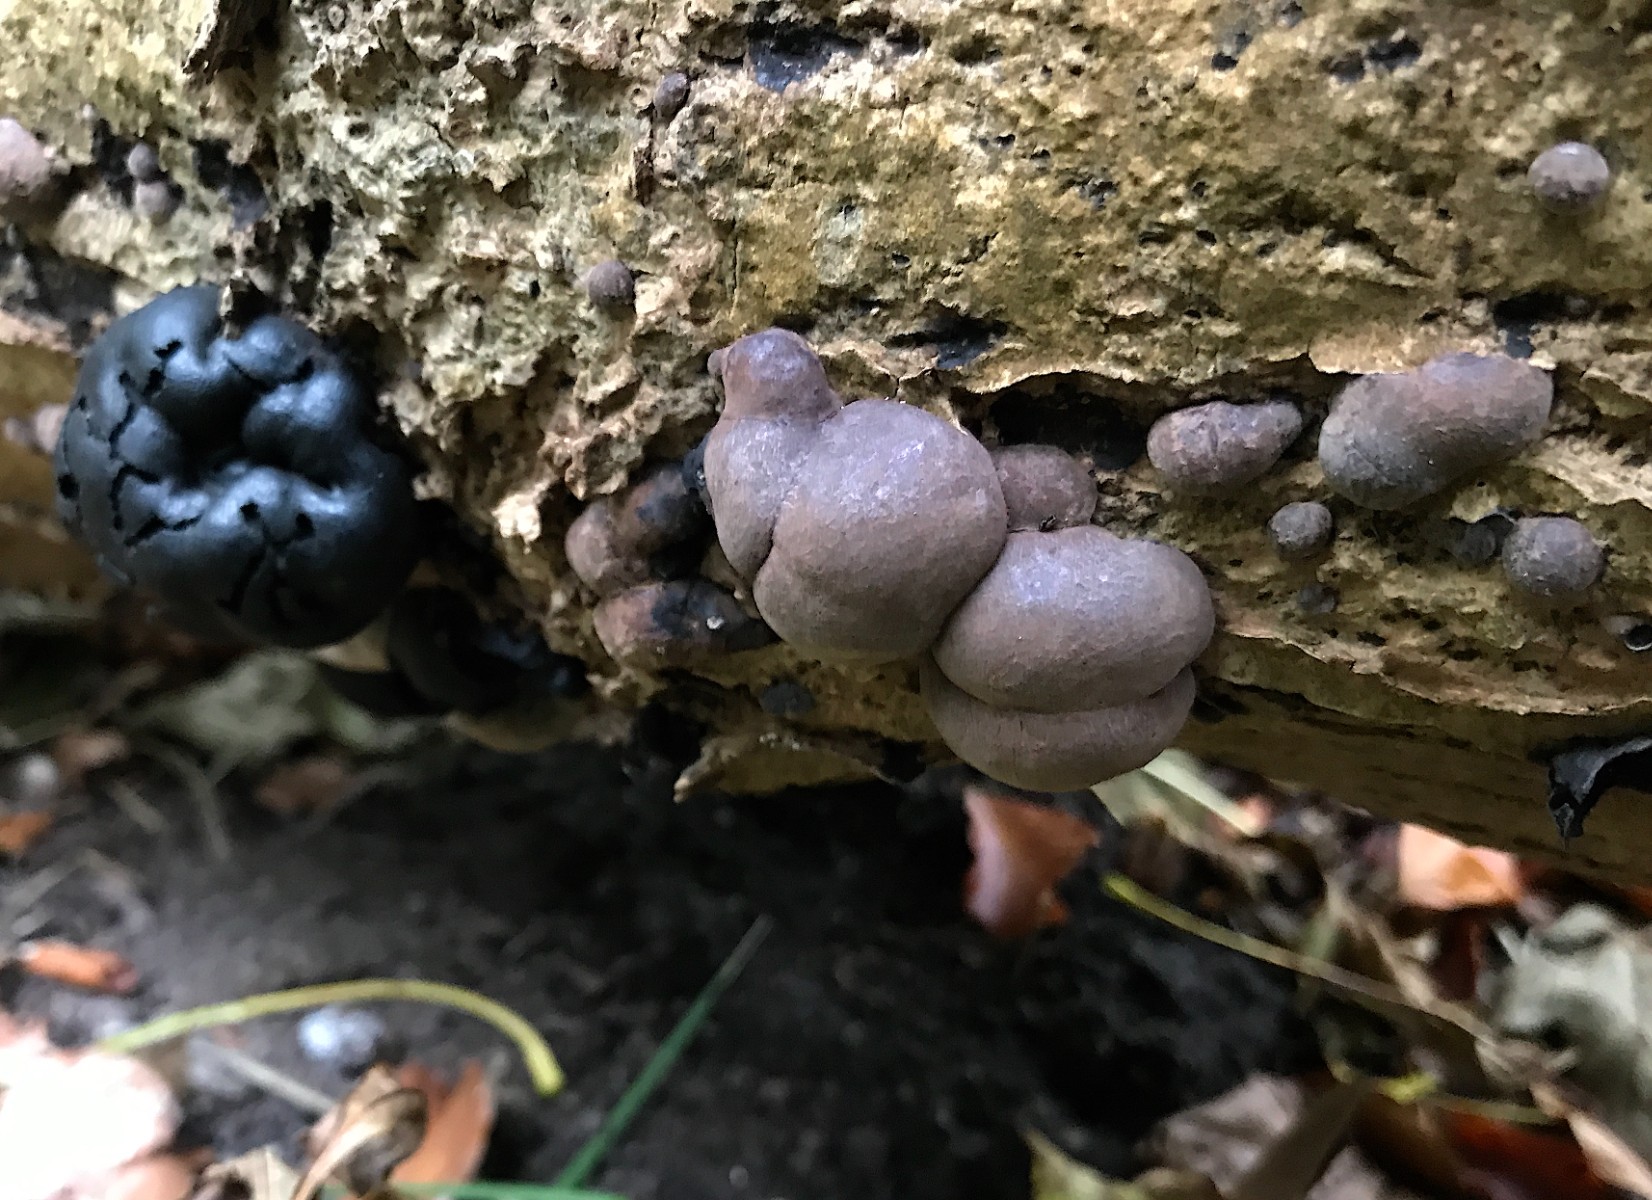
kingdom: Fungi
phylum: Ascomycota
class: Sordariomycetes
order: Xylariales
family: Hypoxylaceae
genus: Daldinia
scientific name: Daldinia concentrica
